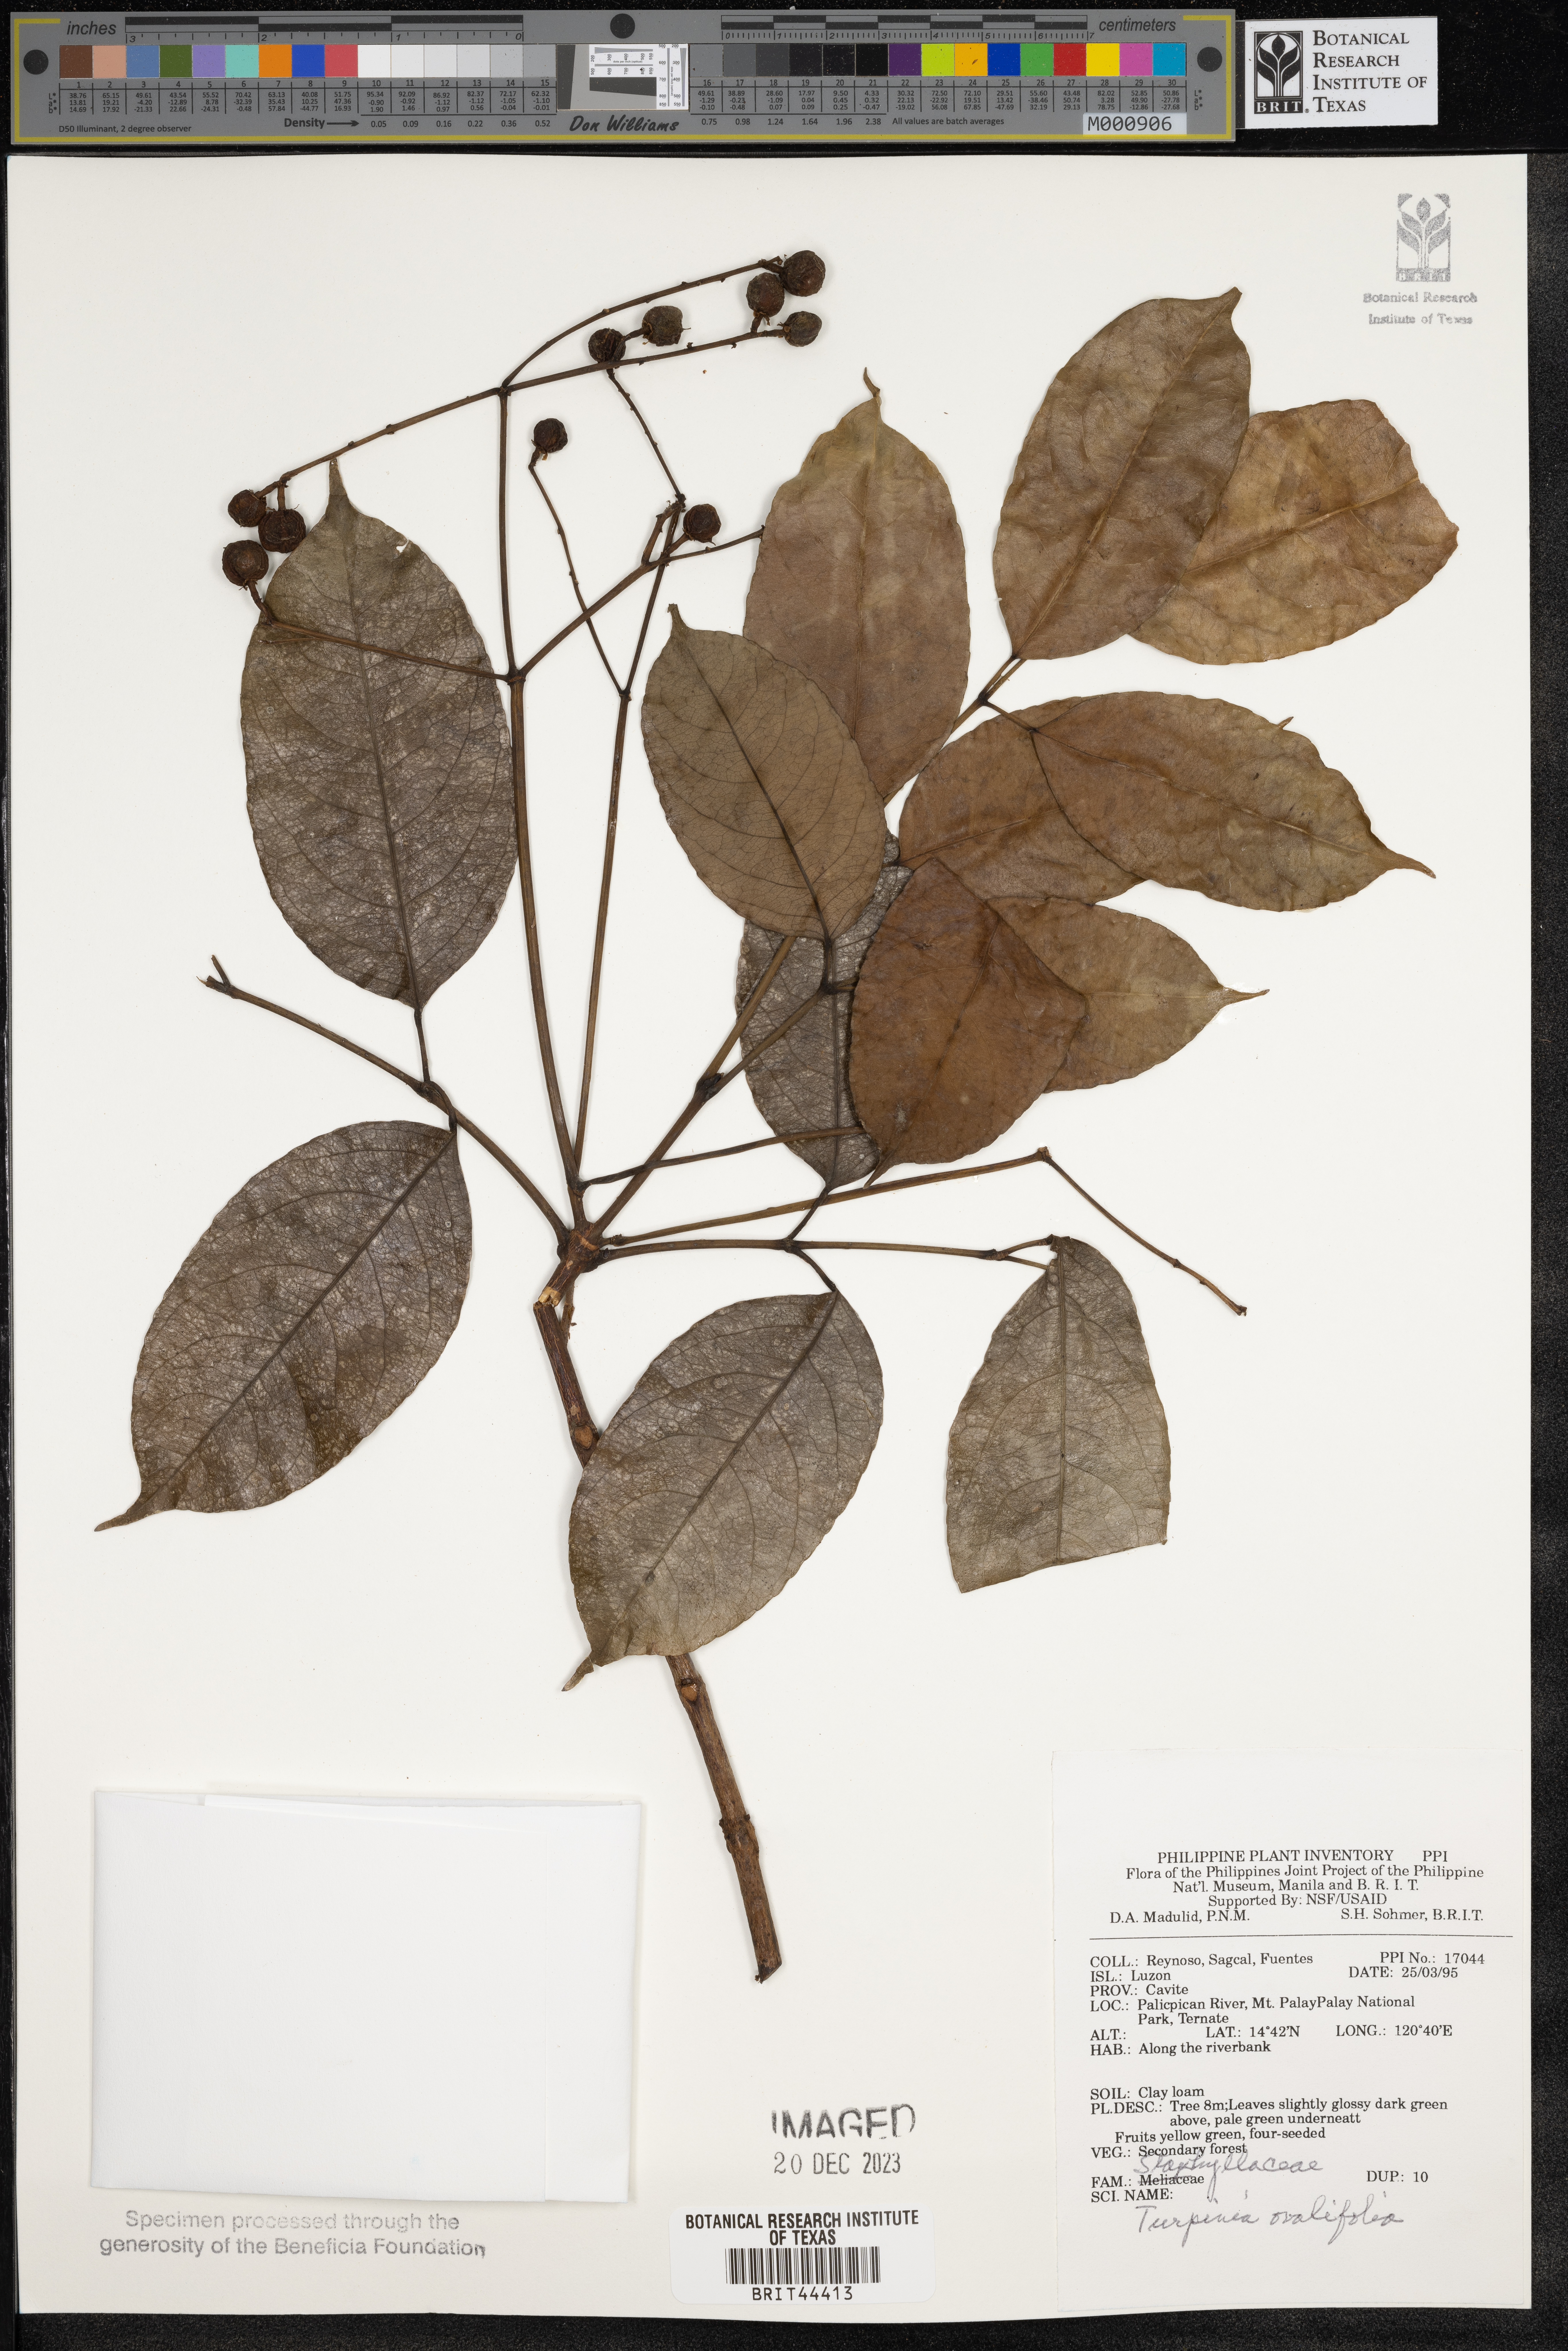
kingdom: Plantae
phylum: Tracheophyta
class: Magnoliopsida
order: Crossosomatales
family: Staphyleaceae
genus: Dalrympelea
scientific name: Dalrympelea trifoliata
